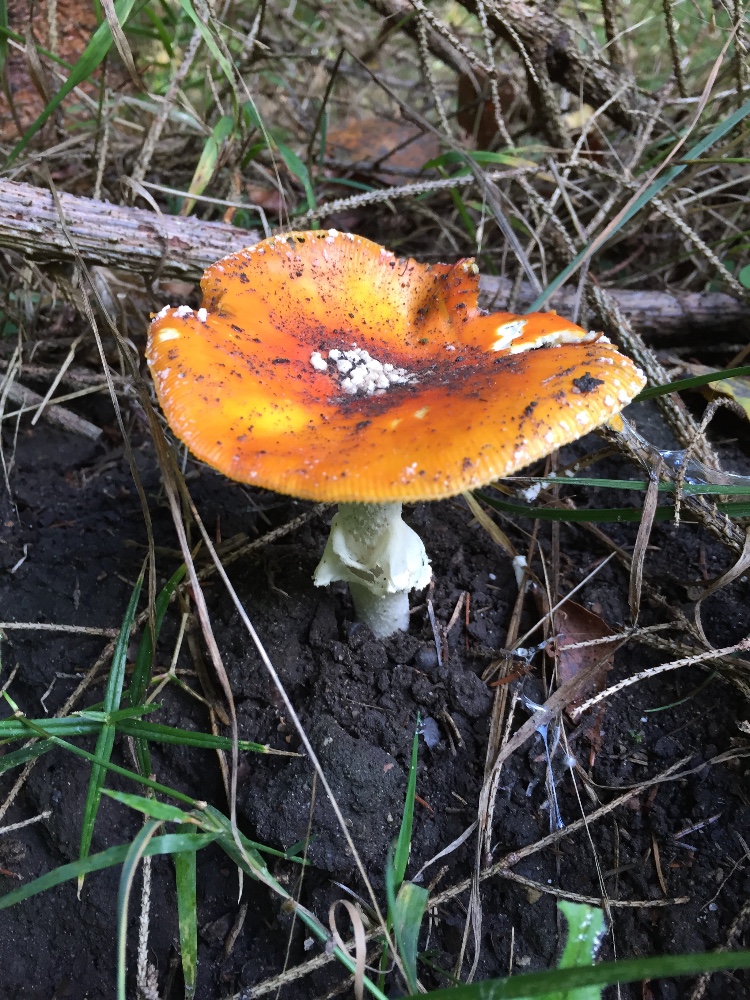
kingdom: Fungi
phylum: Basidiomycota
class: Agaricomycetes
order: Agaricales
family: Amanitaceae
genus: Amanita
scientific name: Amanita muscaria
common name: rød fluesvamp
